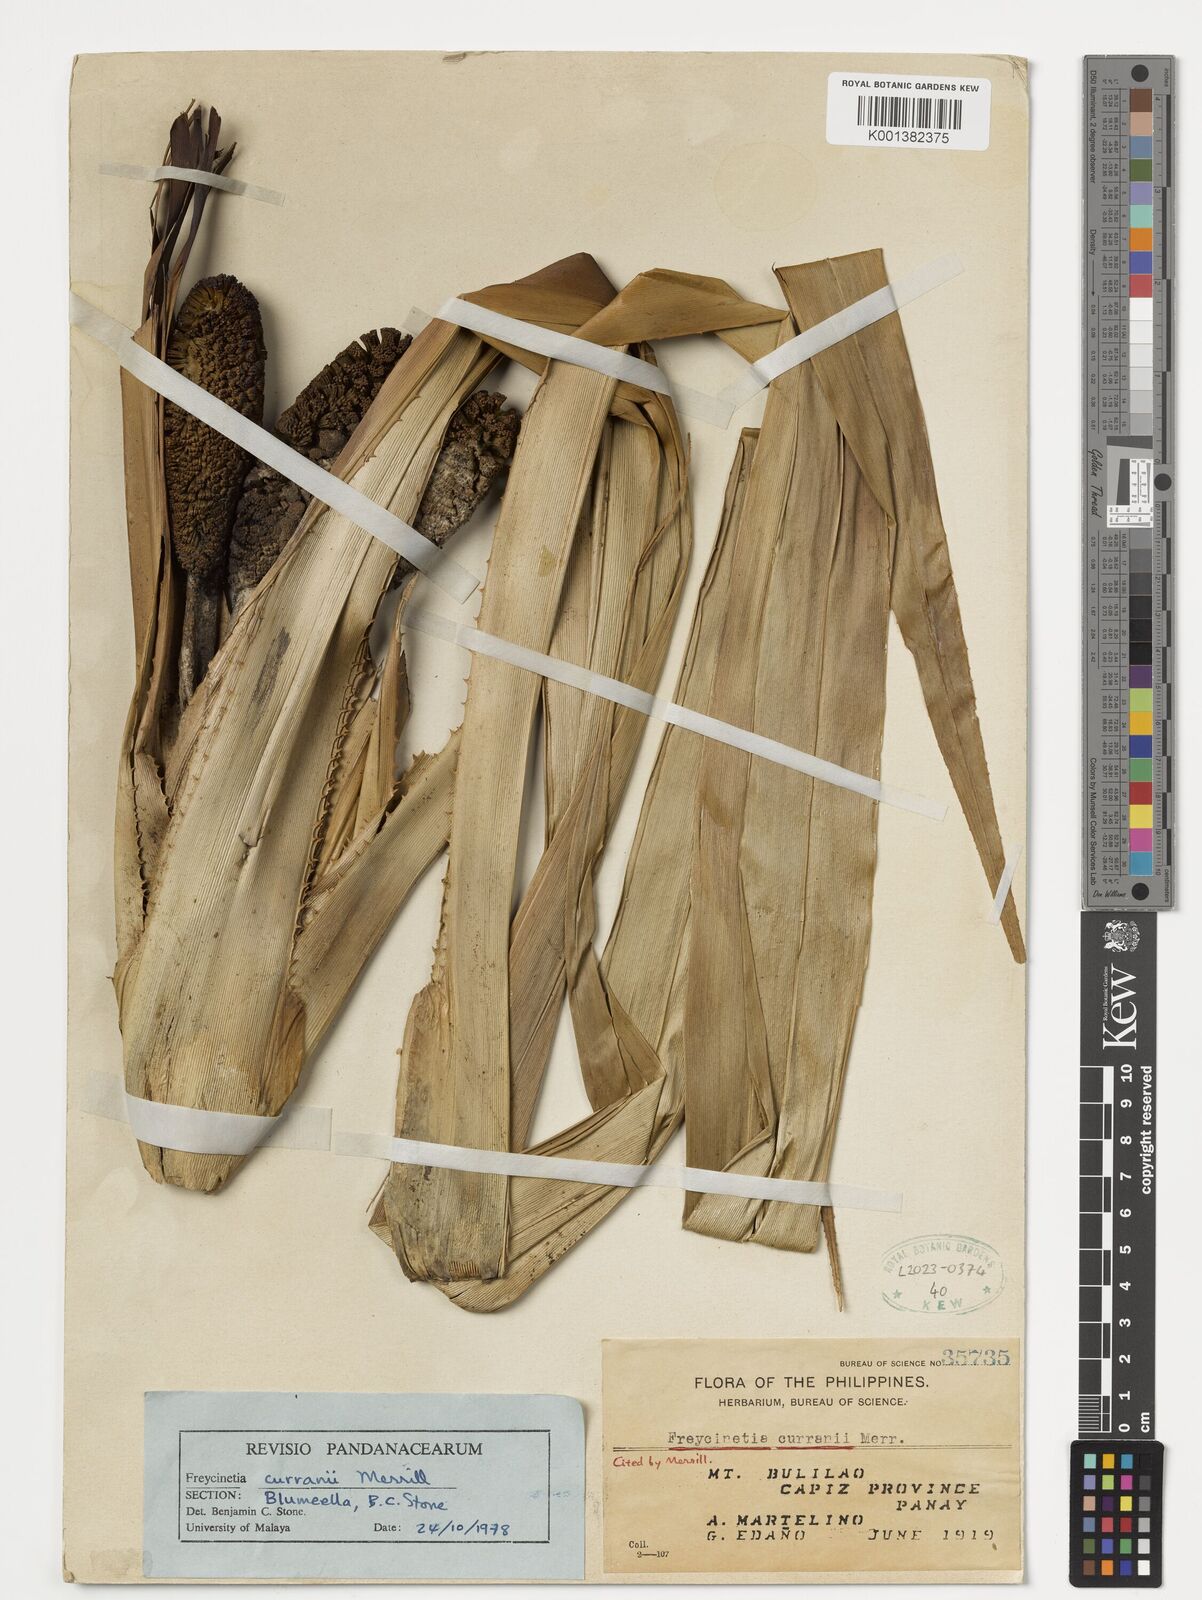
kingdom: Plantae
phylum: Tracheophyta
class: Liliopsida
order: Pandanales
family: Pandanaceae
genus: Freycinetia
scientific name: Freycinetia curranii
